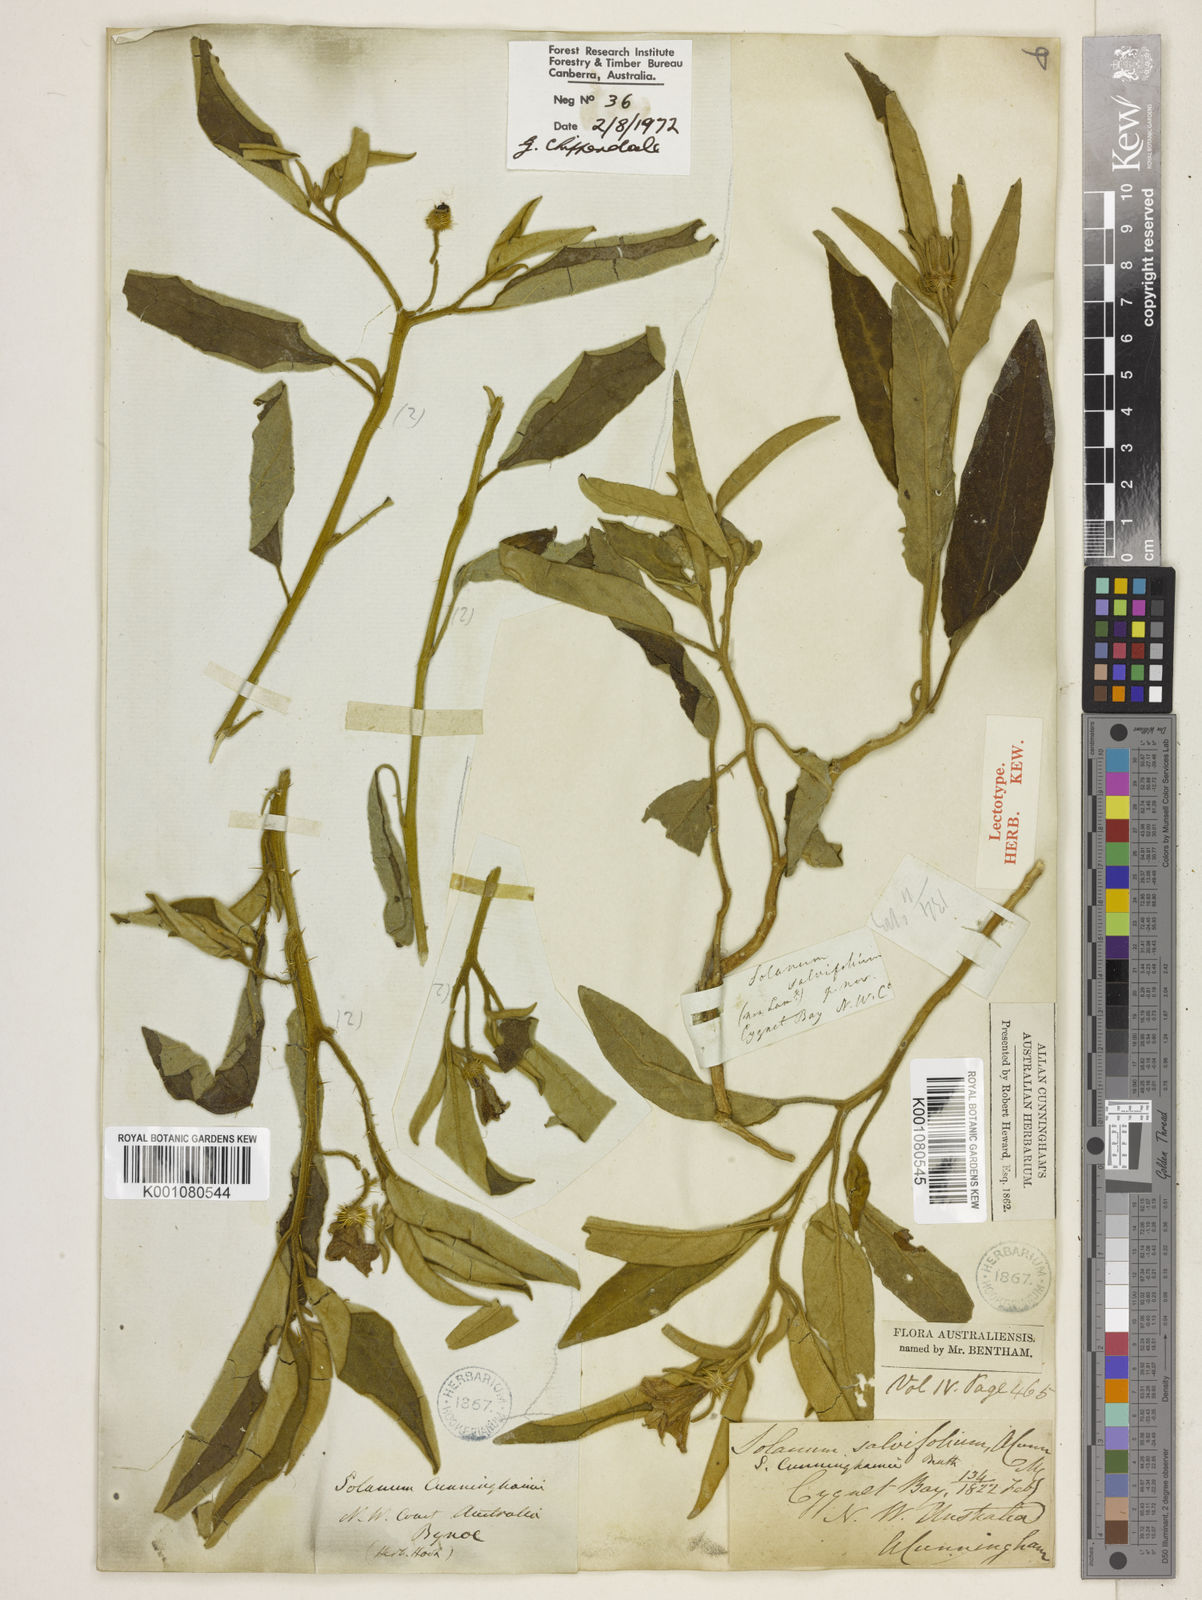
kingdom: Plantae
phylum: Tracheophyta
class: Magnoliopsida
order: Solanales
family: Solanaceae
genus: Solanum
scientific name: Solanum cunninghamii
